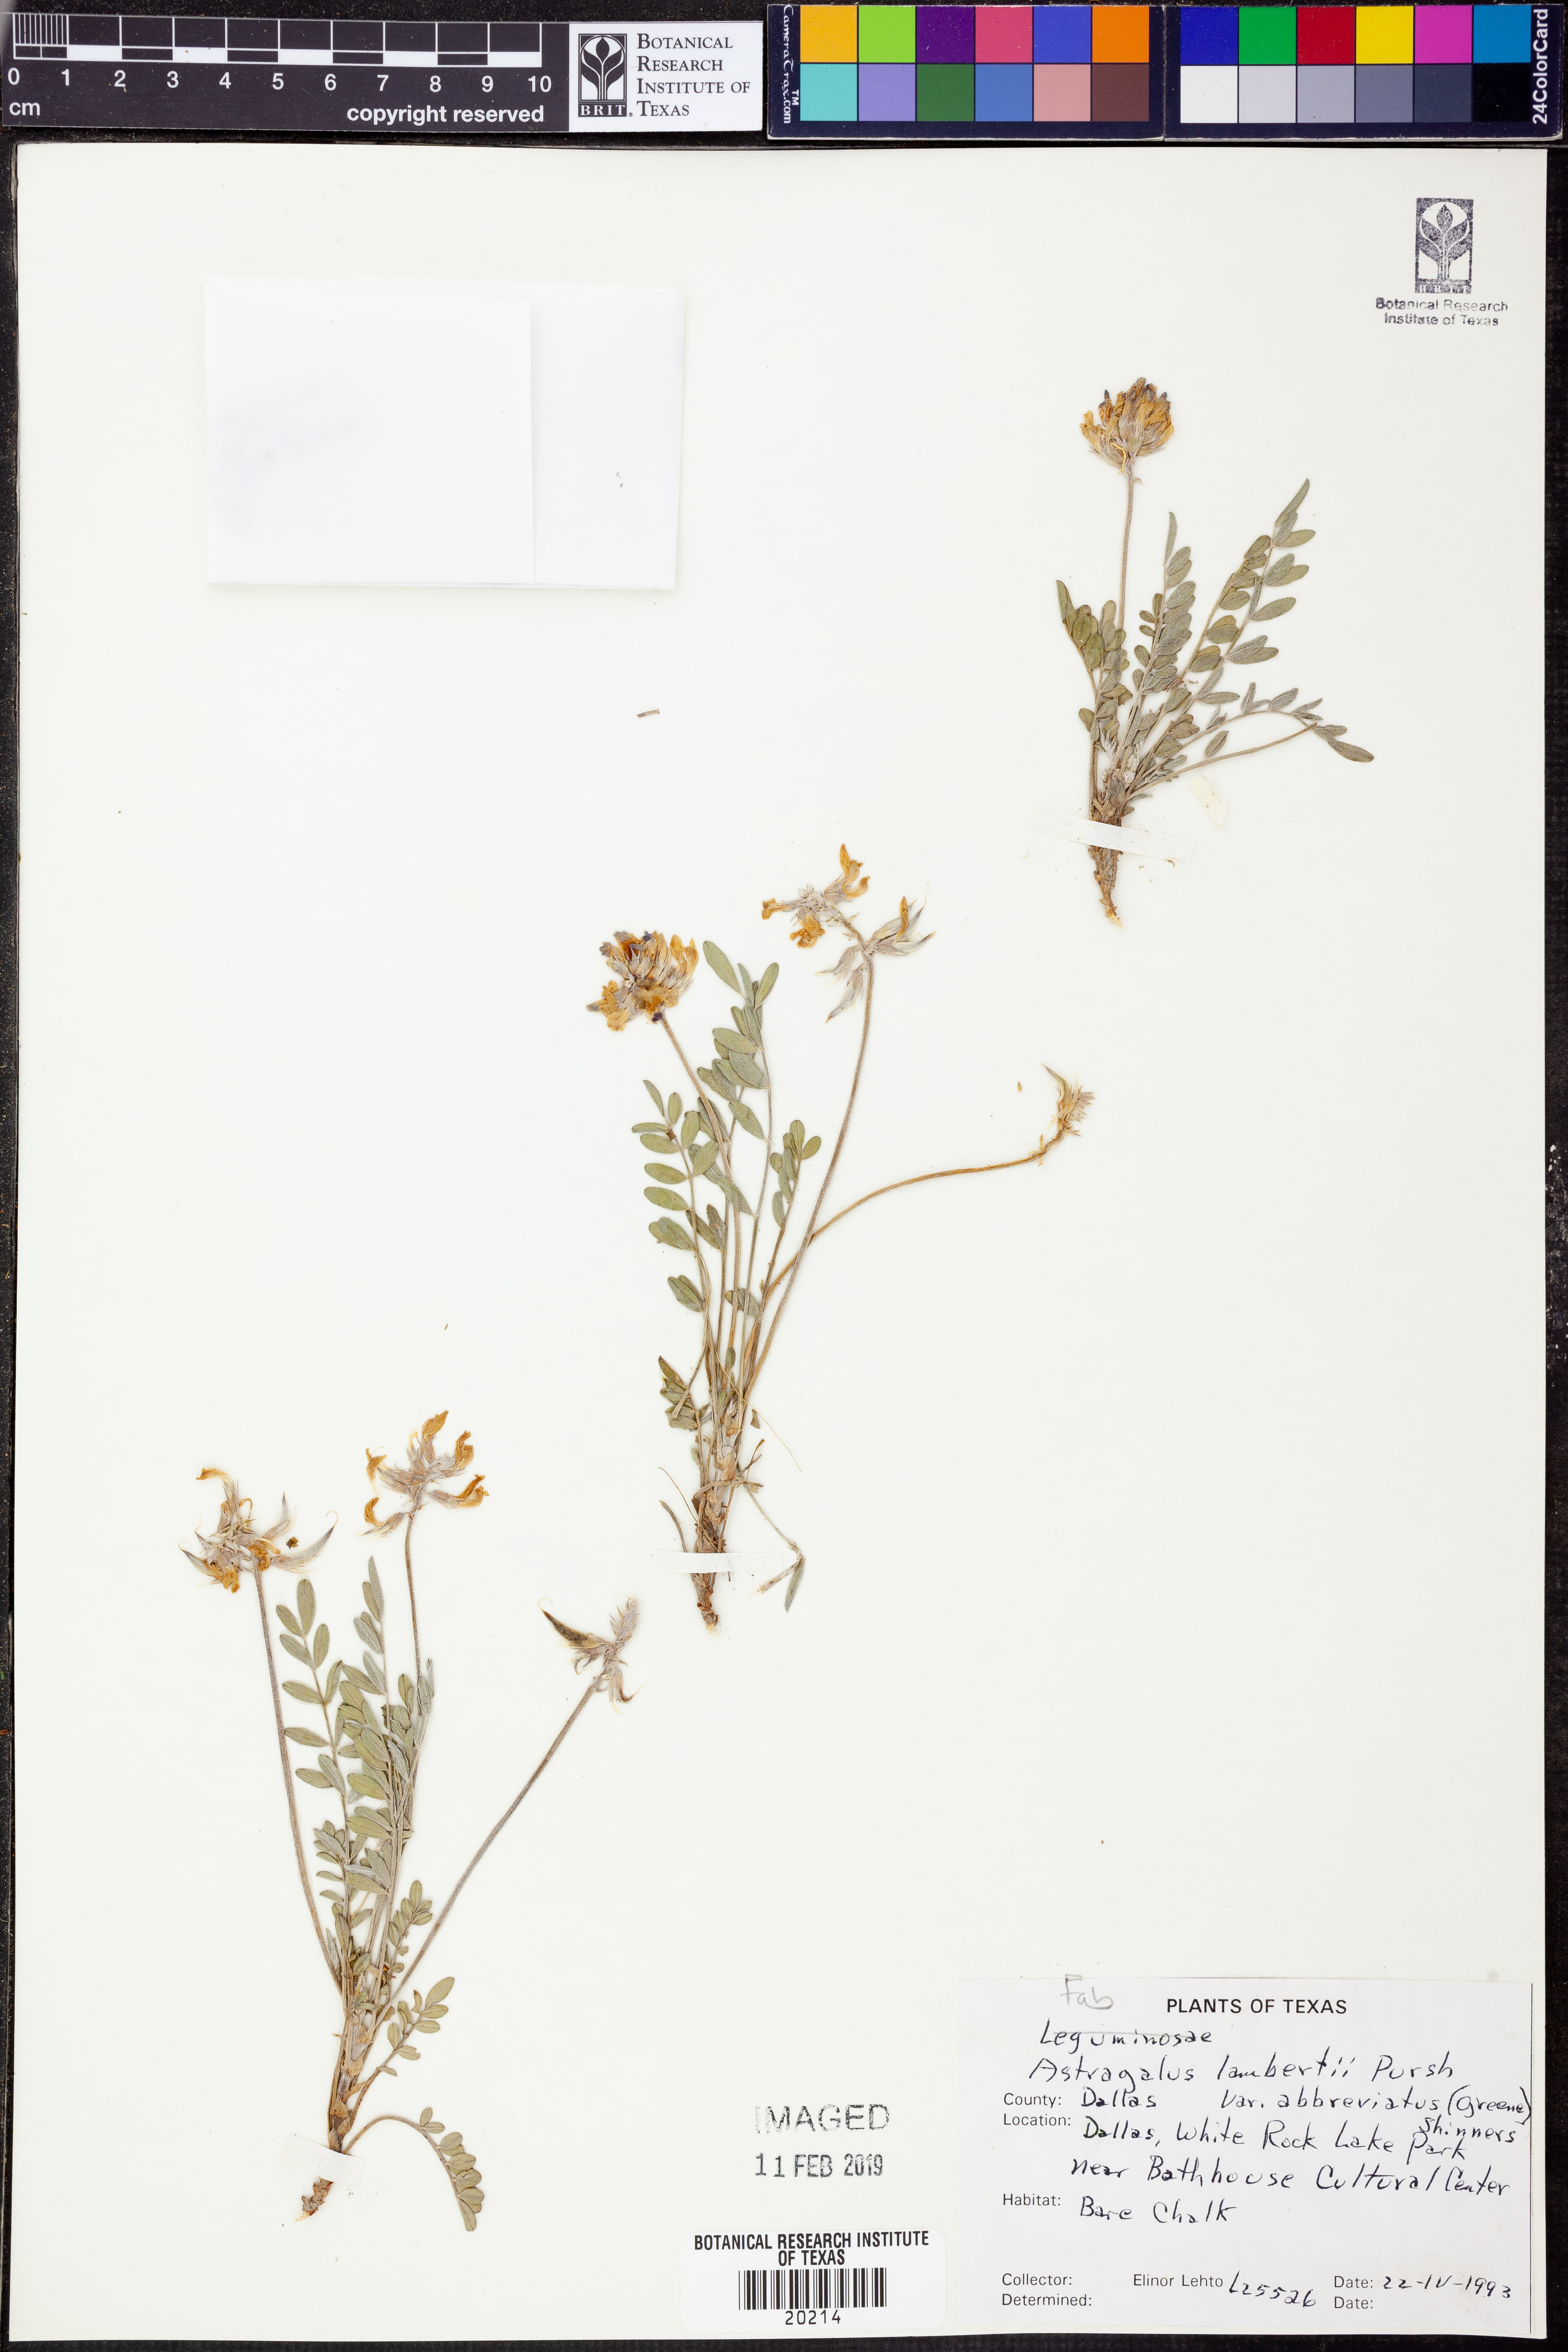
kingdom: Plantae
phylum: Tracheophyta
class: Magnoliopsida
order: Fabales
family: Fabaceae
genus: Oxytropis
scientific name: Oxytropis lambertii
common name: Purple locoweed
